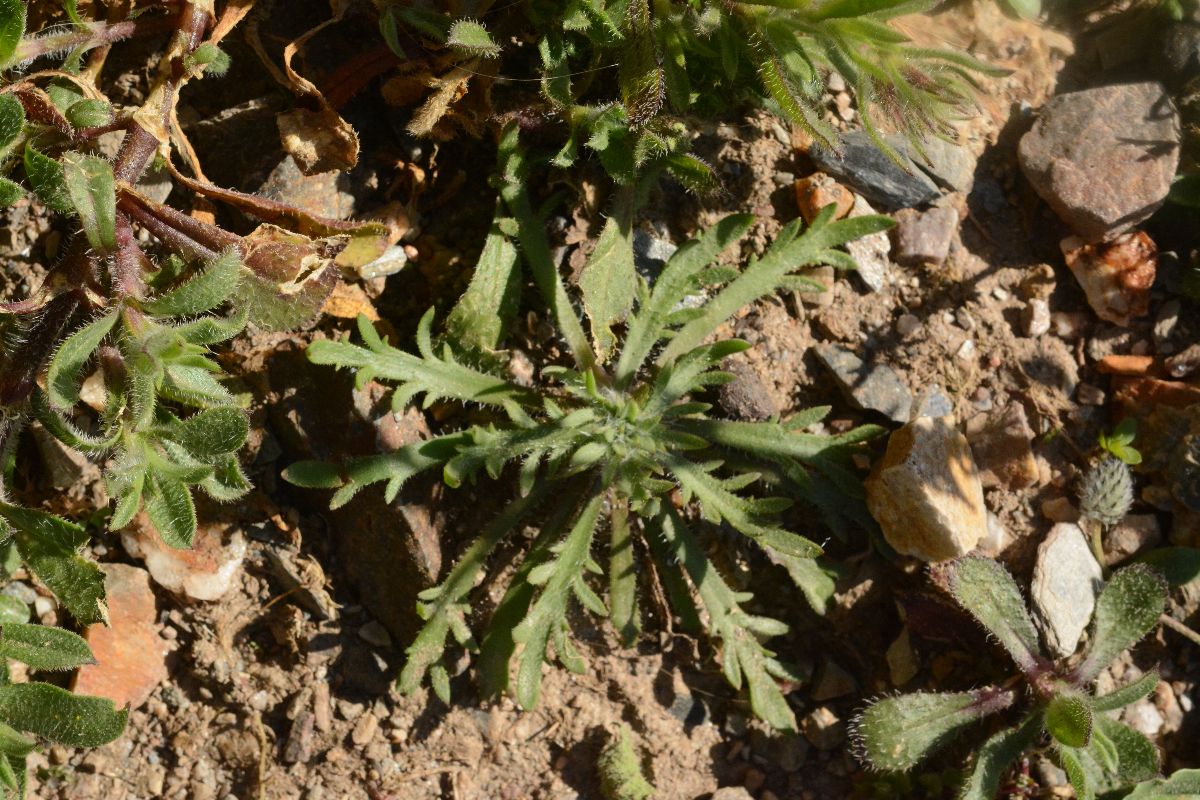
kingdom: Plantae
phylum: Tracheophyta
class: Magnoliopsida
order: Lamiales
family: Plantaginaceae
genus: Plantago
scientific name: Plantago coronopus
